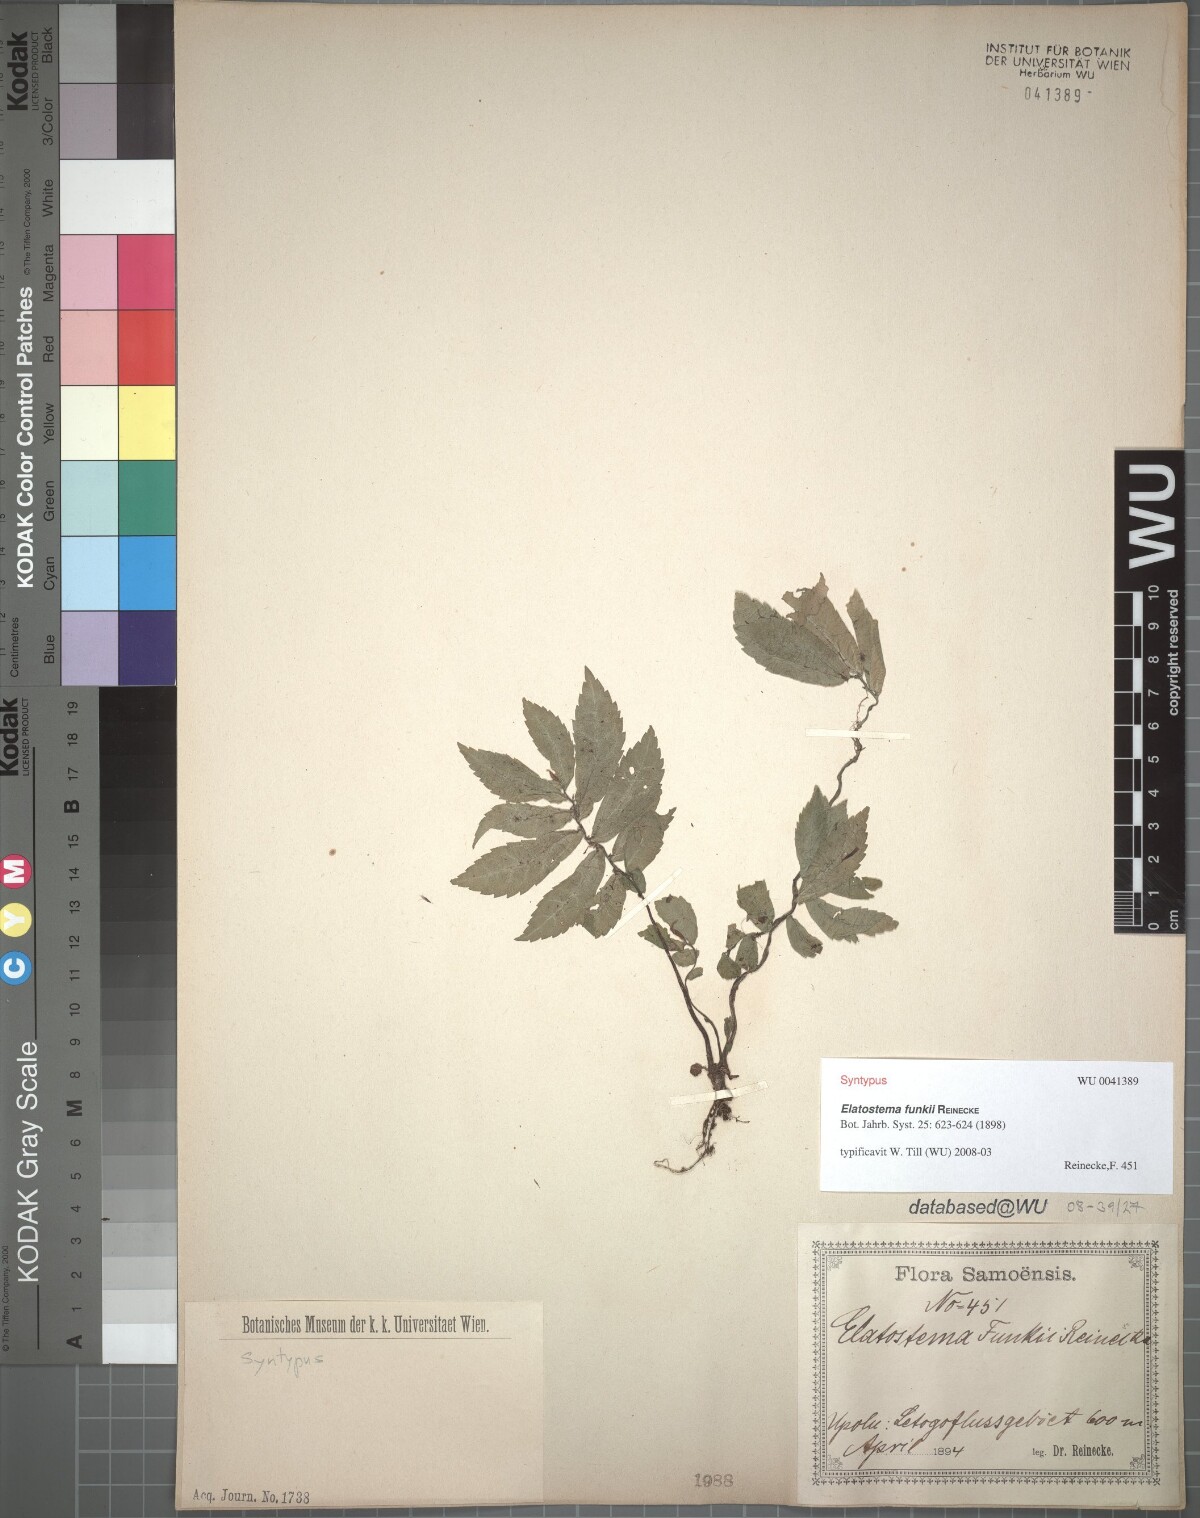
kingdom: Plantae
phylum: Tracheophyta
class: Magnoliopsida
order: Rosales
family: Urticaceae
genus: Elatostema
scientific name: Elatostema funkii
